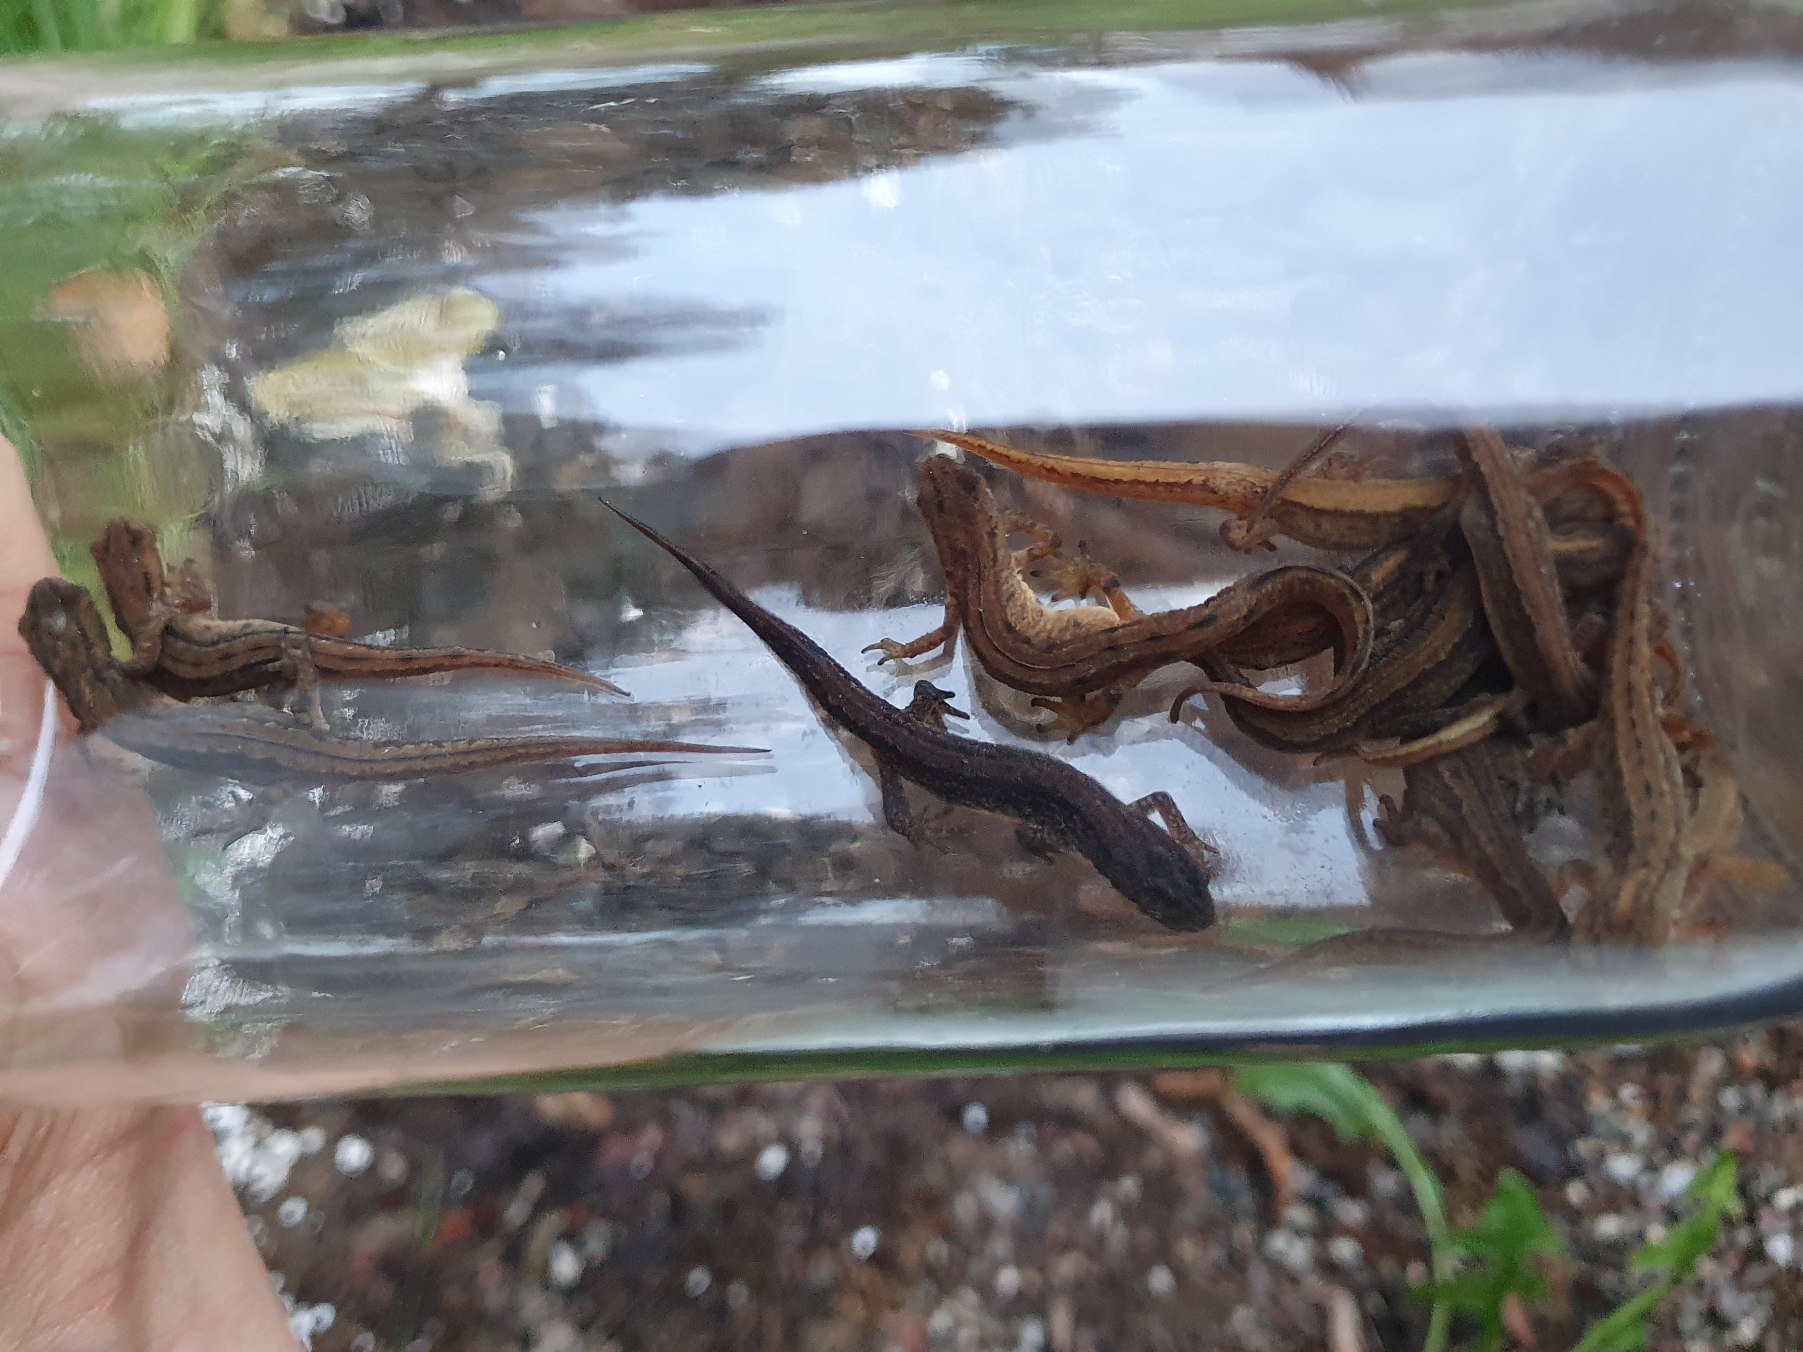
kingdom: Animalia
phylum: Chordata
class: Amphibia
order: Caudata
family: Salamandridae
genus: Lissotriton
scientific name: Lissotriton vulgaris
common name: Lille vandsalamander
